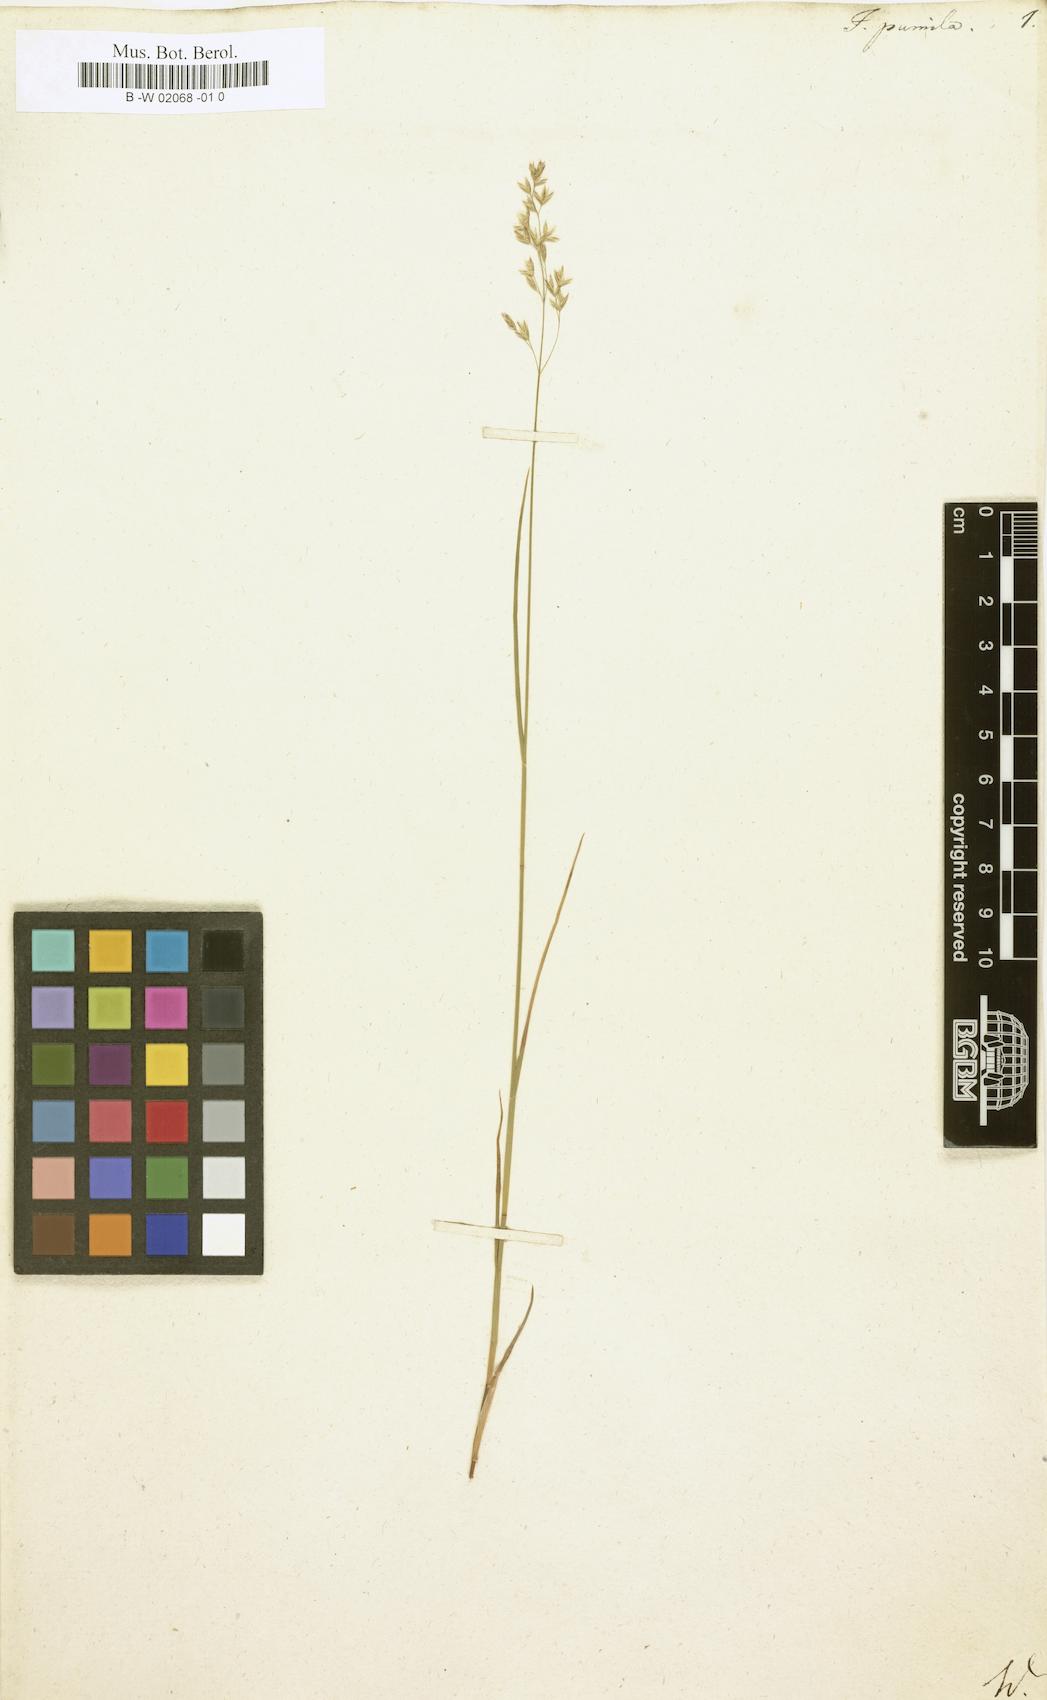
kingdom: Plantae
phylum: Tracheophyta
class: Liliopsida
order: Poales
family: Poaceae
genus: Festuca
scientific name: Festuca quadriflora
